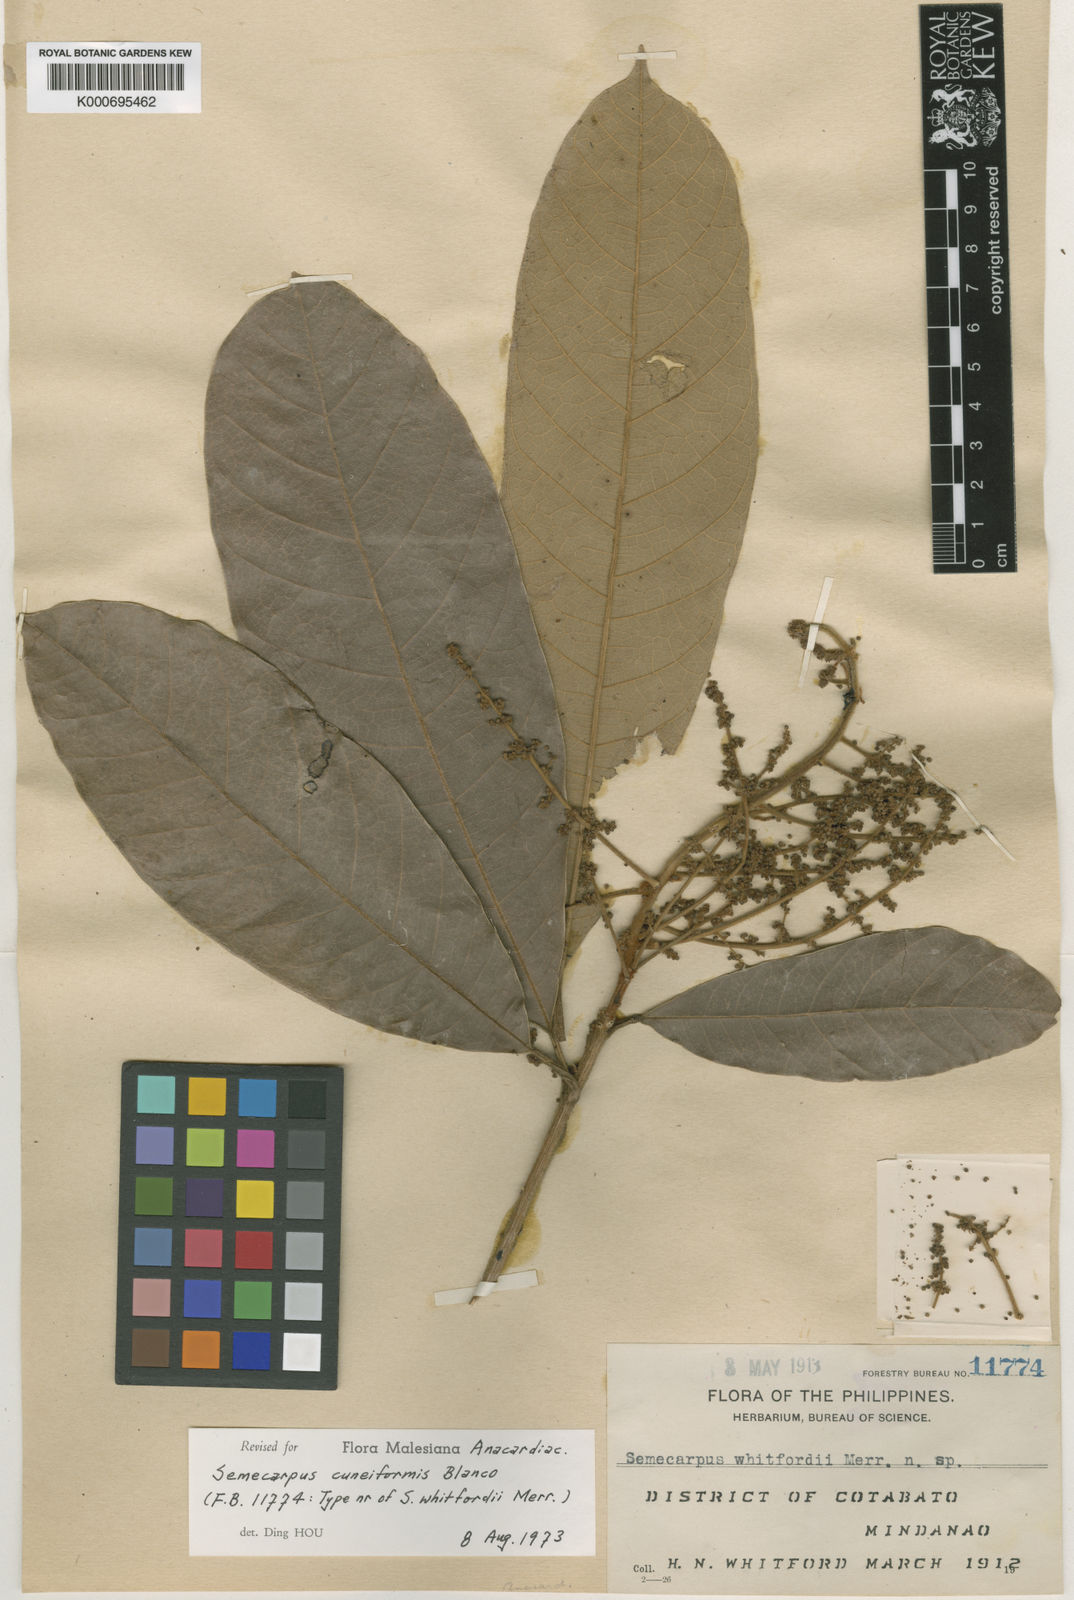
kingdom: Plantae
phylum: Tracheophyta
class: Magnoliopsida
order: Sapindales
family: Anacardiaceae
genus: Semecarpus
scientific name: Semecarpus cuneiformis
